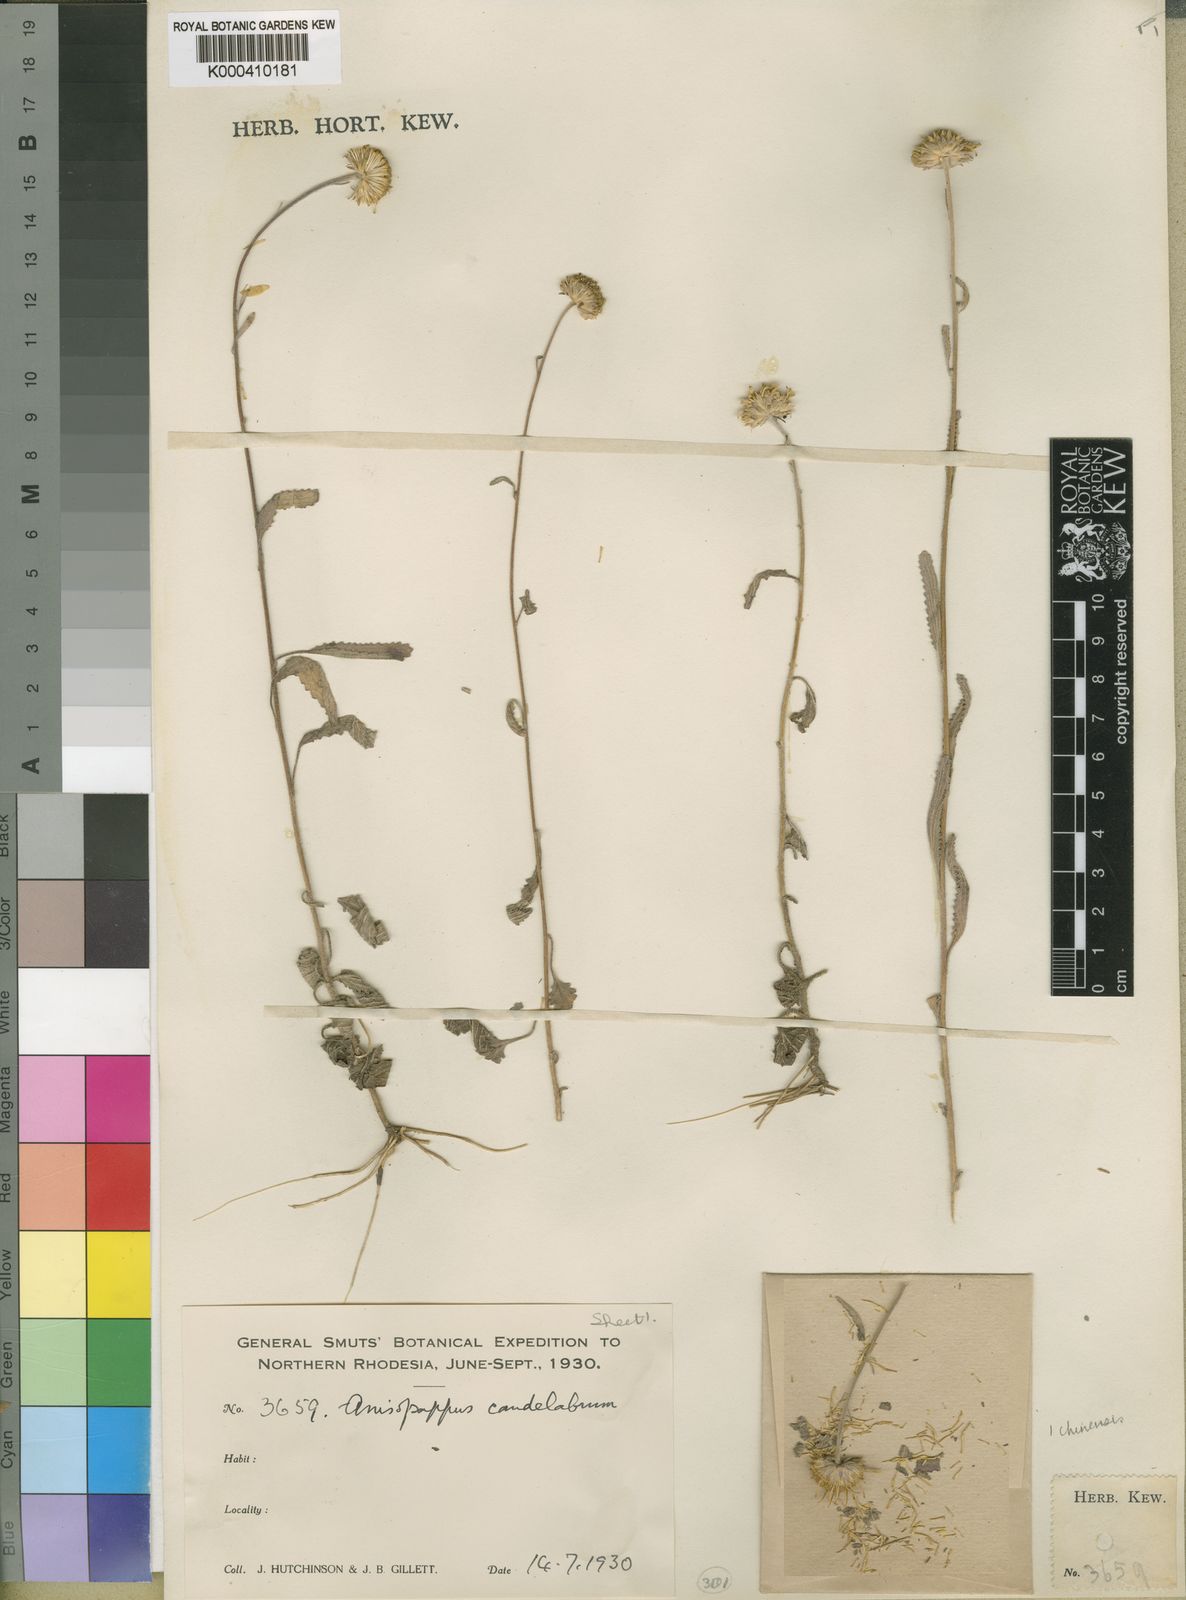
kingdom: Plantae
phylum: Tracheophyta
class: Magnoliopsida
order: Asterales
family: Asteraceae
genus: Anisopappus
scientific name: Anisopappus chinensis
